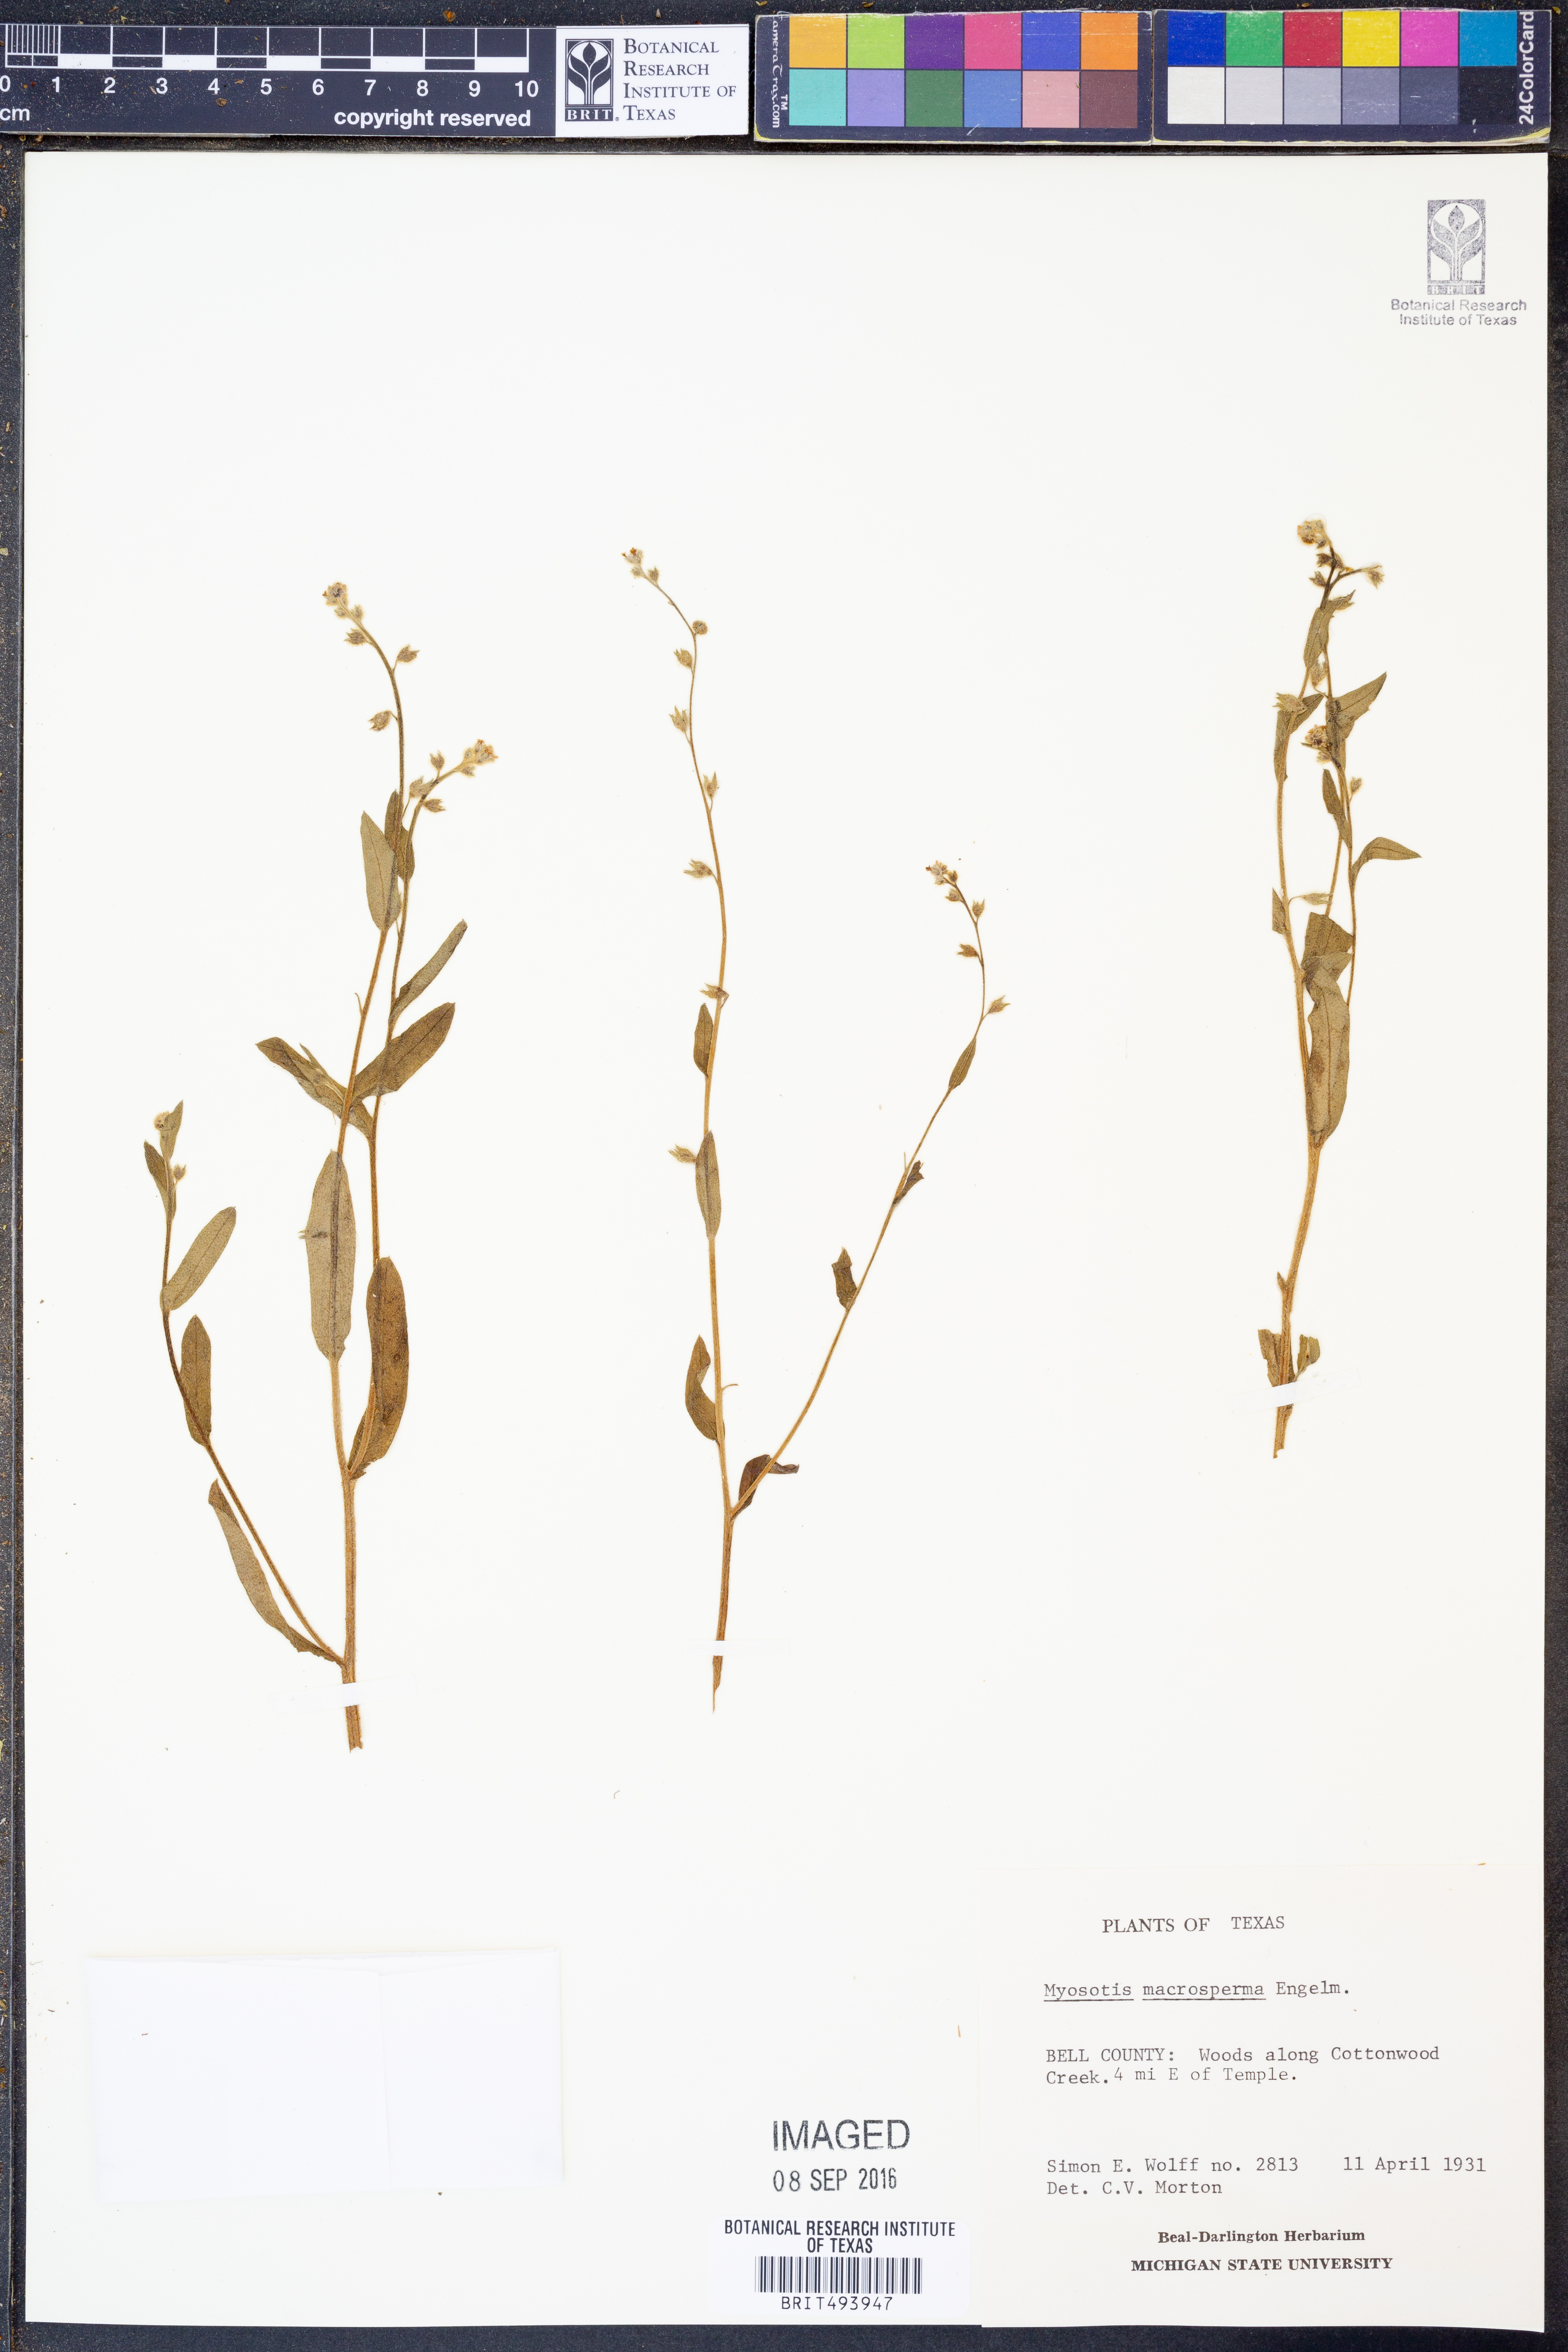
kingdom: Plantae
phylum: Tracheophyta
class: Magnoliopsida
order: Boraginales
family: Boraginaceae
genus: Myosotis
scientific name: Myosotis macrosperma
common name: Large-seed forget-me-not
